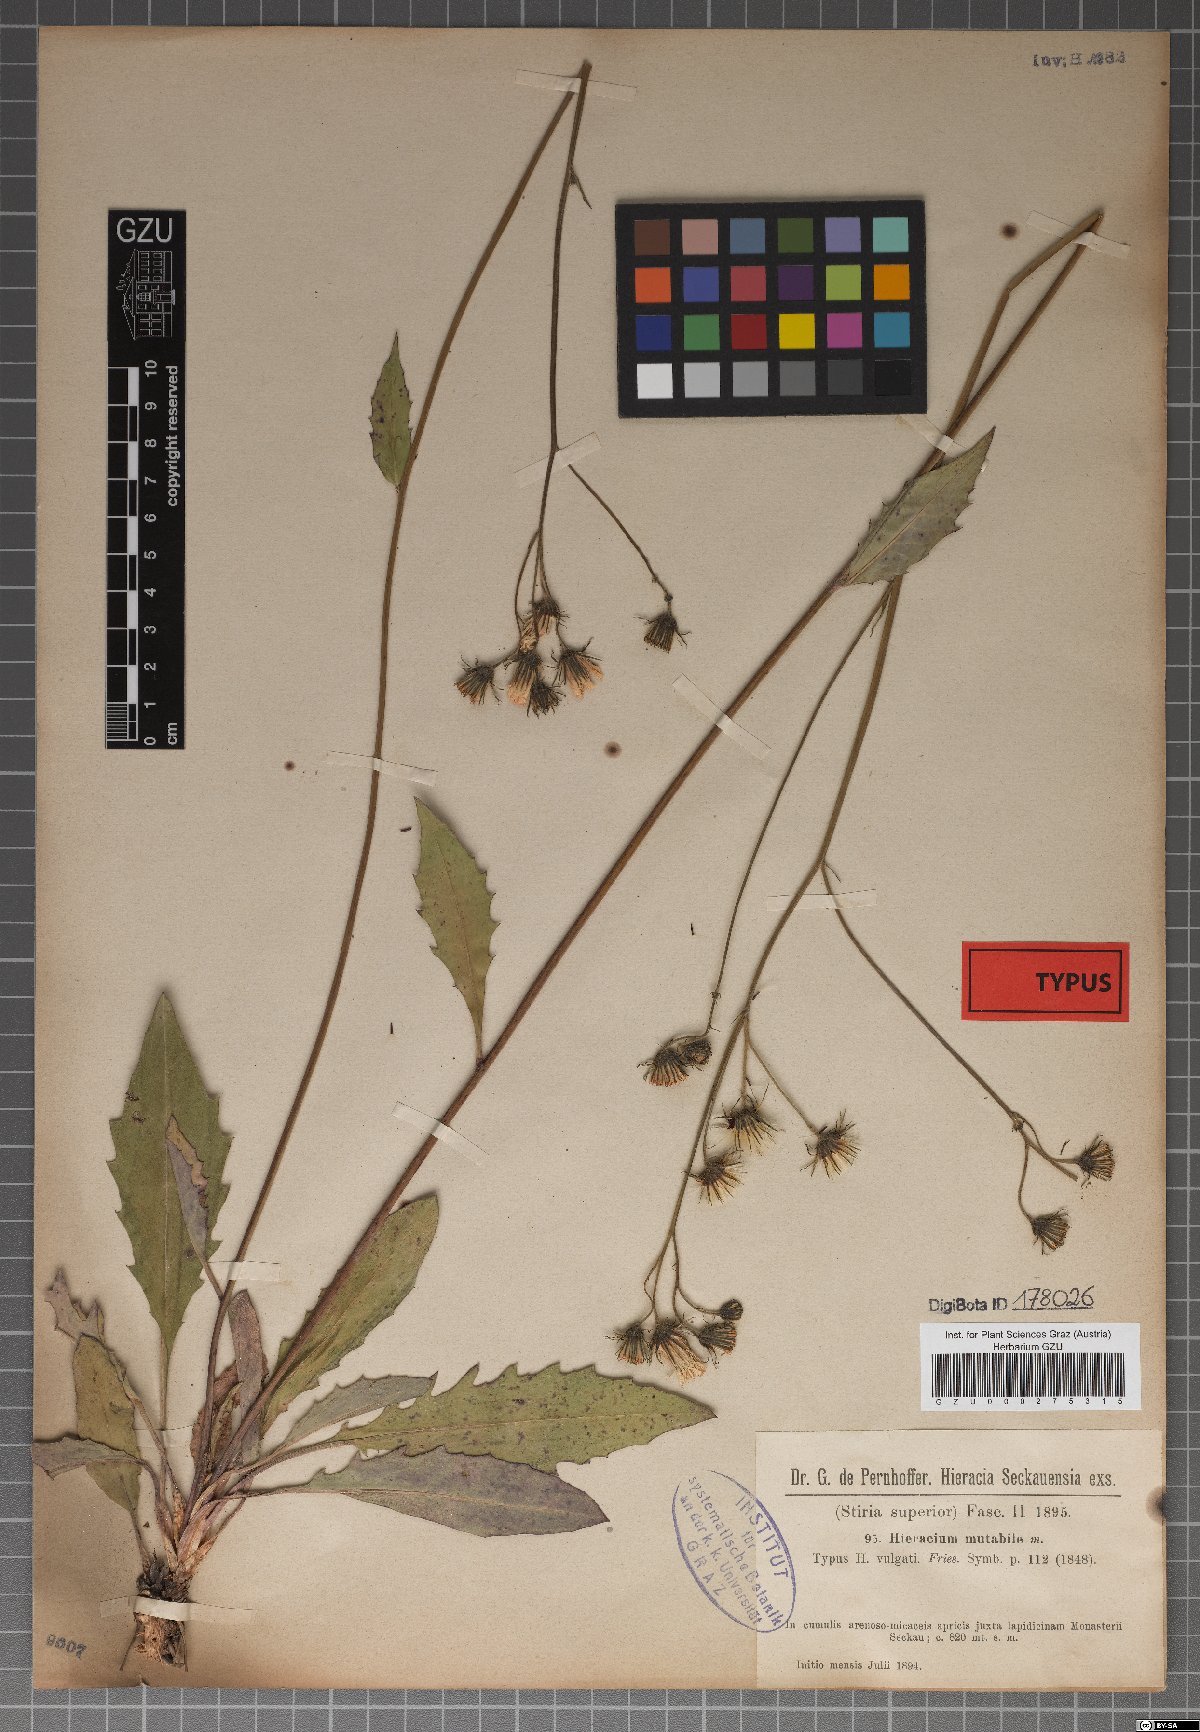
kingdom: Plantae
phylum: Tracheophyta
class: Magnoliopsida
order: Asterales
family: Asteraceae
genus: Hieracium
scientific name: Hieracium mutabile
